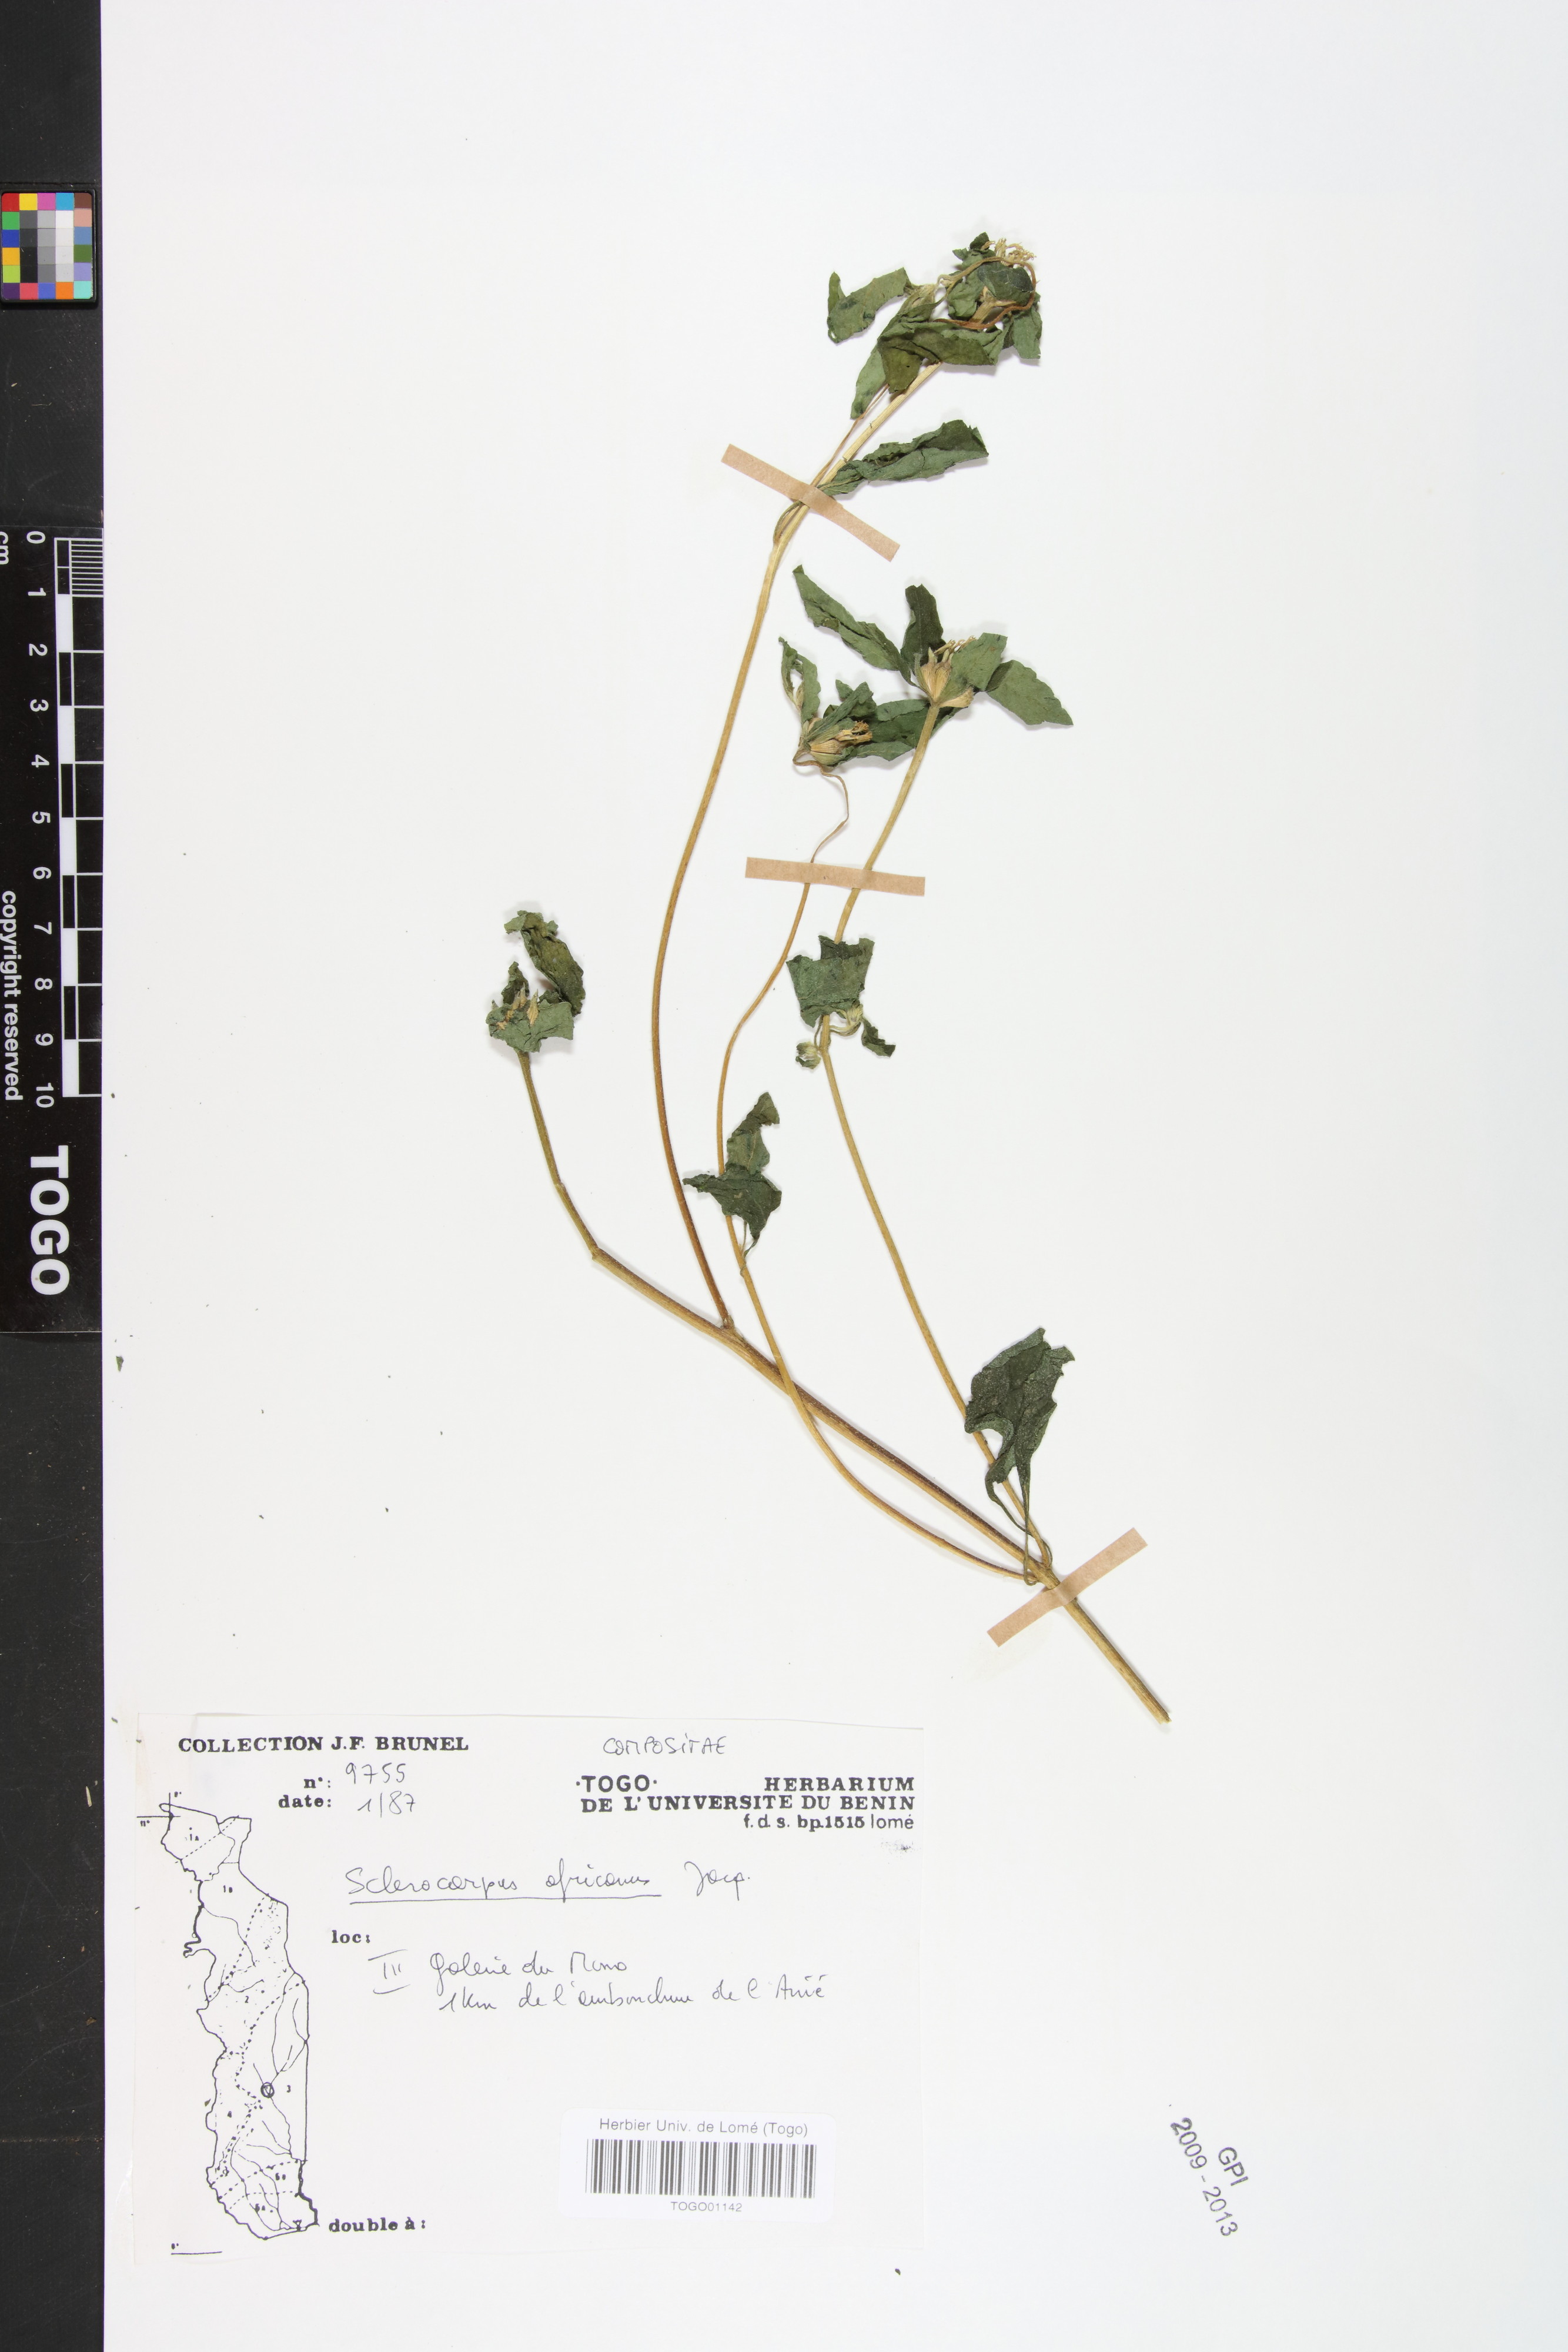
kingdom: Plantae
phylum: Tracheophyta
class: Magnoliopsida
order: Asterales
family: Asteraceae
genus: Sclerocarpus
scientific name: Sclerocarpus africanus
